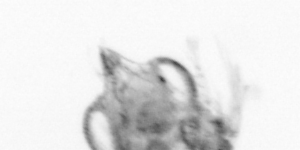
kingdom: Animalia
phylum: Arthropoda
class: Copepoda
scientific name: Copepoda
